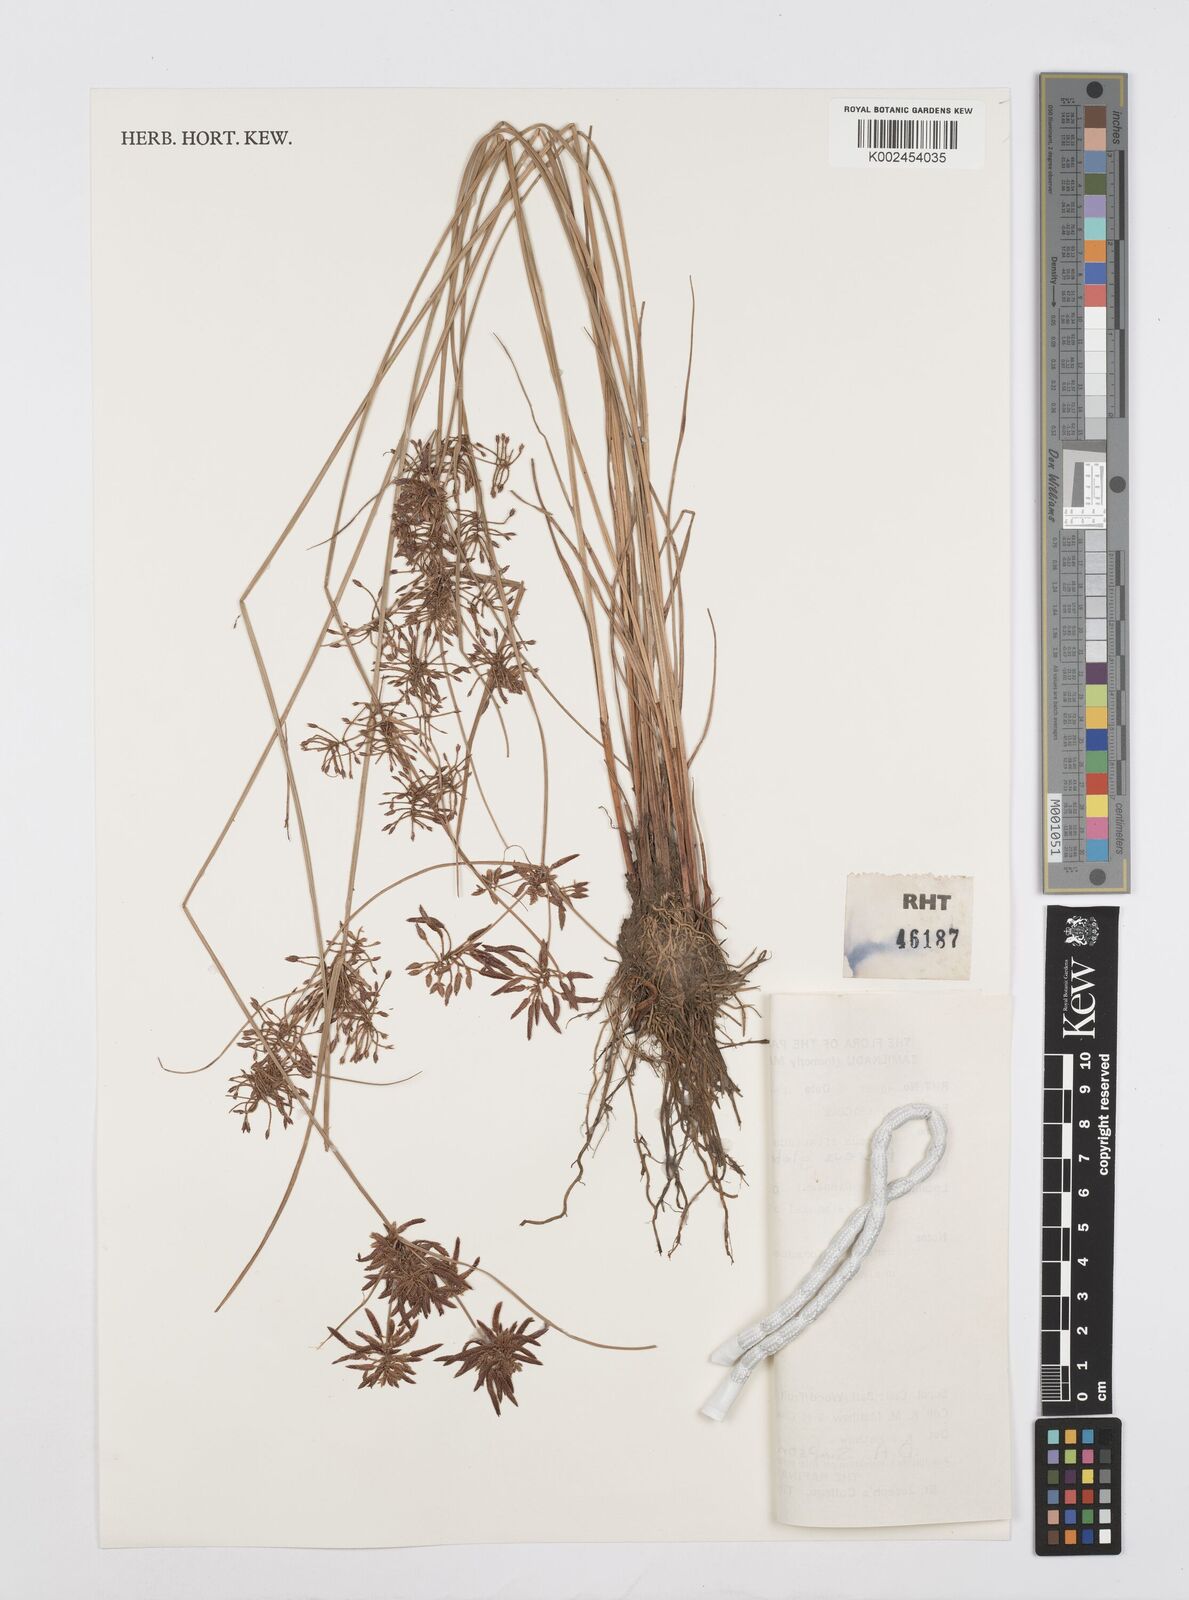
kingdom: Plantae
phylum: Tracheophyta
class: Liliopsida
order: Poales
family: Cyperaceae
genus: Cyperus
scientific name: Cyperus flavidus
